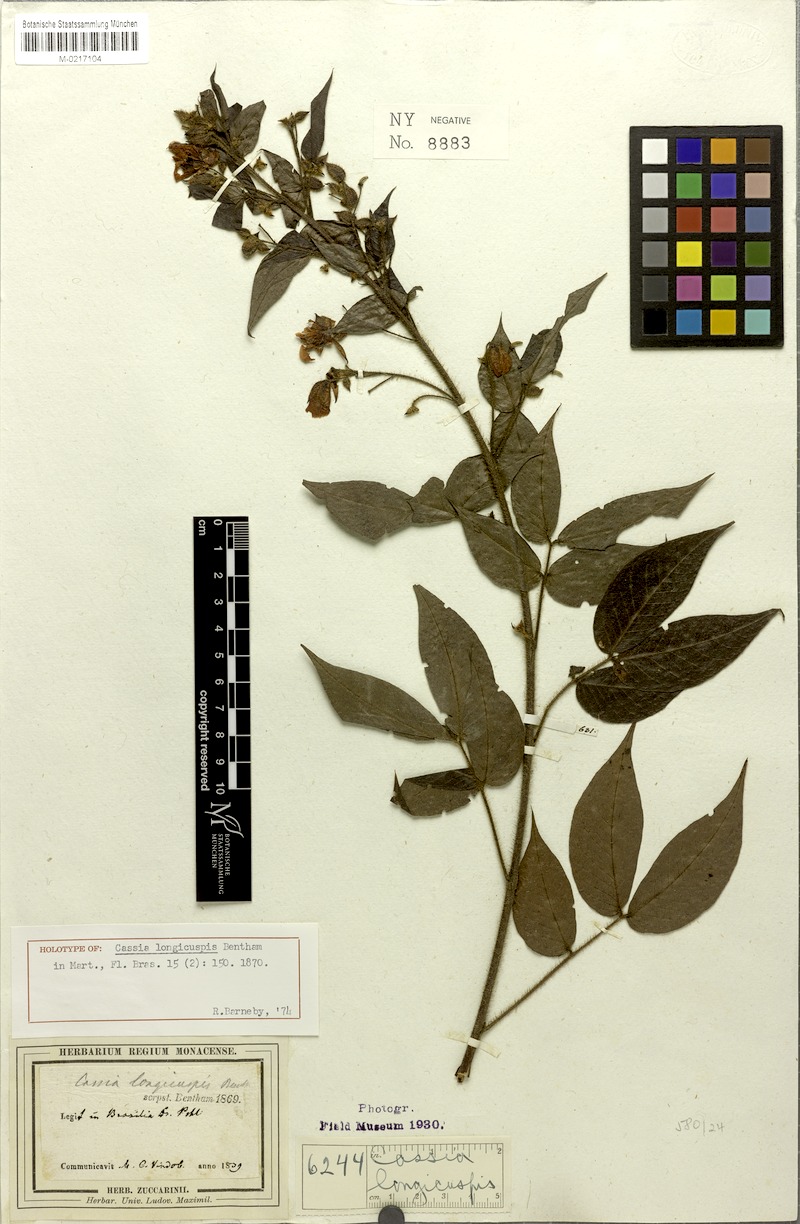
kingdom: Plantae
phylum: Tracheophyta
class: Magnoliopsida
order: Fabales
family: Fabaceae
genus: Chamaecrista
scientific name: Chamaecrista longicuspis
